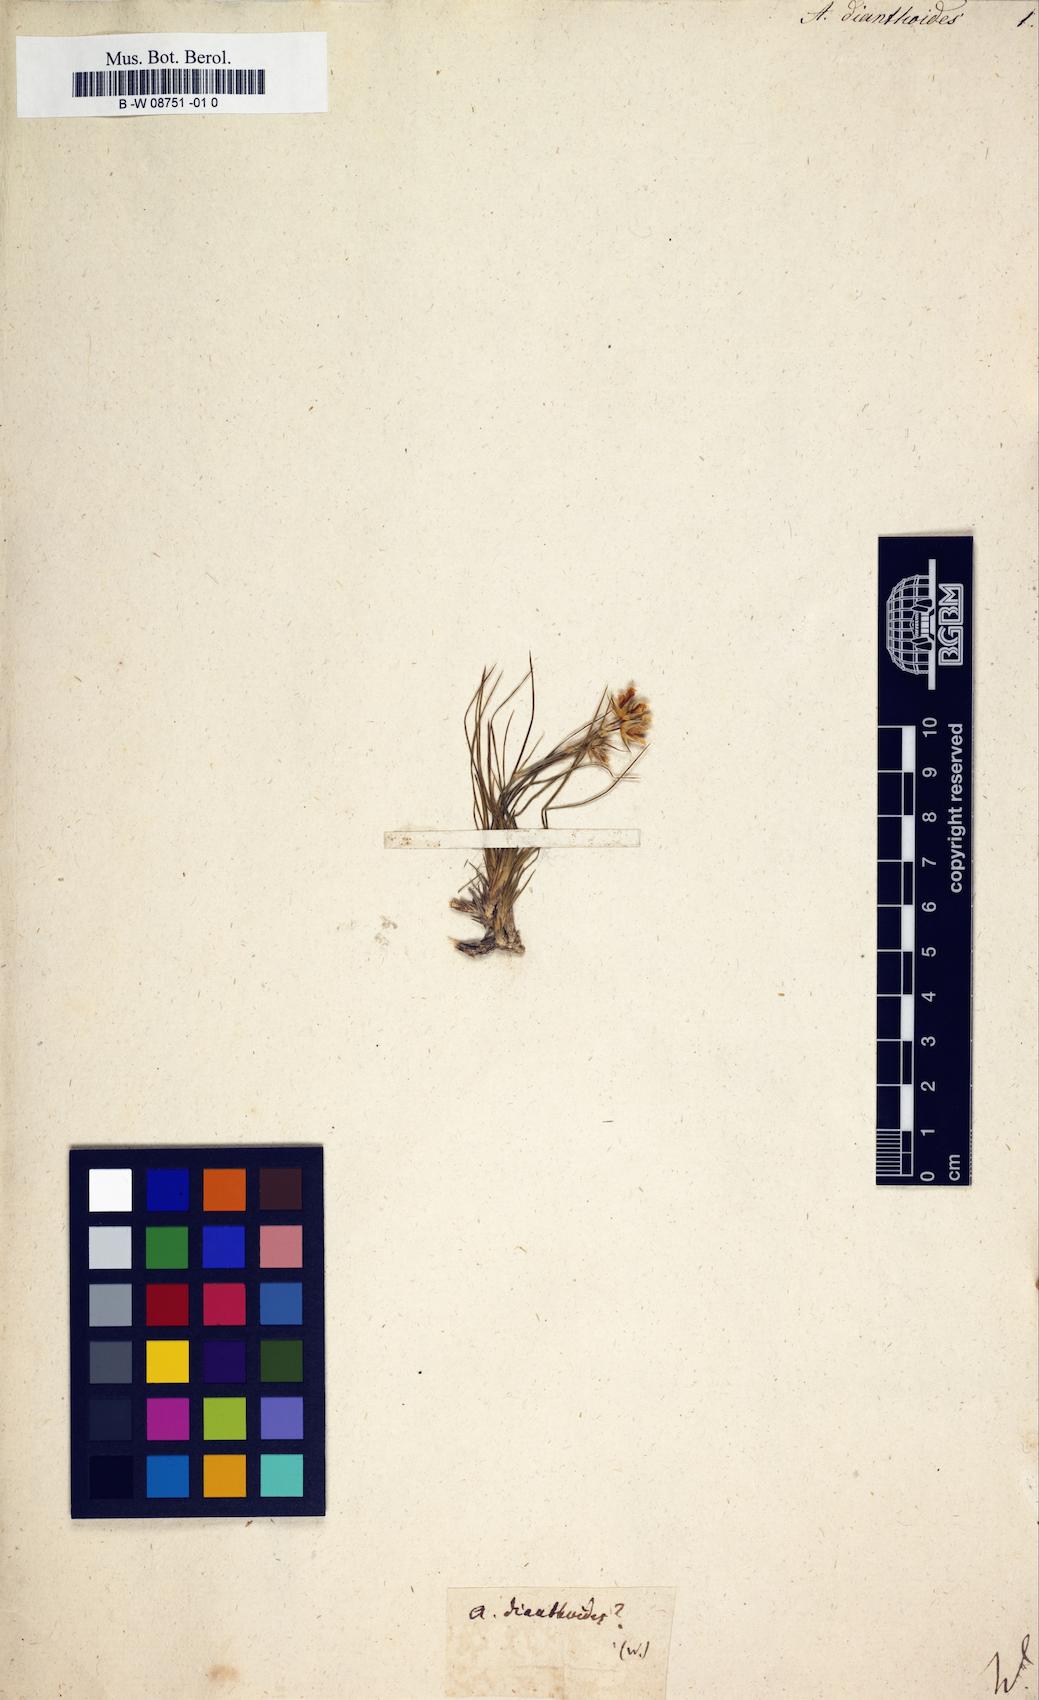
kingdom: Plantae
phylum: Tracheophyta
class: Magnoliopsida
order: Caryophyllales
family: Caryophyllaceae
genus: Eremogone
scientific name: Eremogone dianthoides
